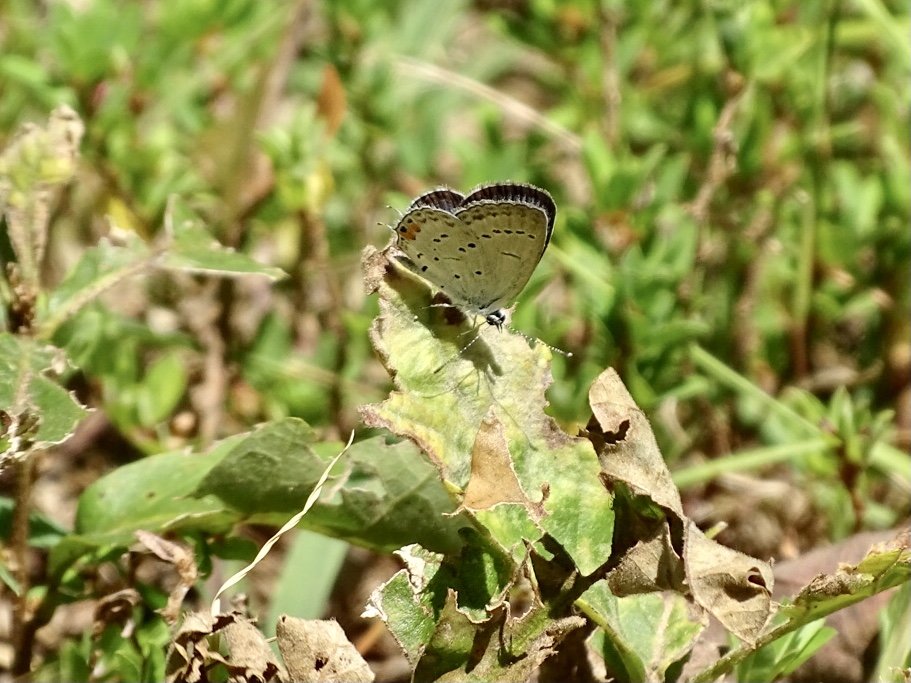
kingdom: Animalia
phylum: Arthropoda
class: Insecta
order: Lepidoptera
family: Lycaenidae
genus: Elkalyce
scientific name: Elkalyce comyntas
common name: Eastern Tailed-Blue
